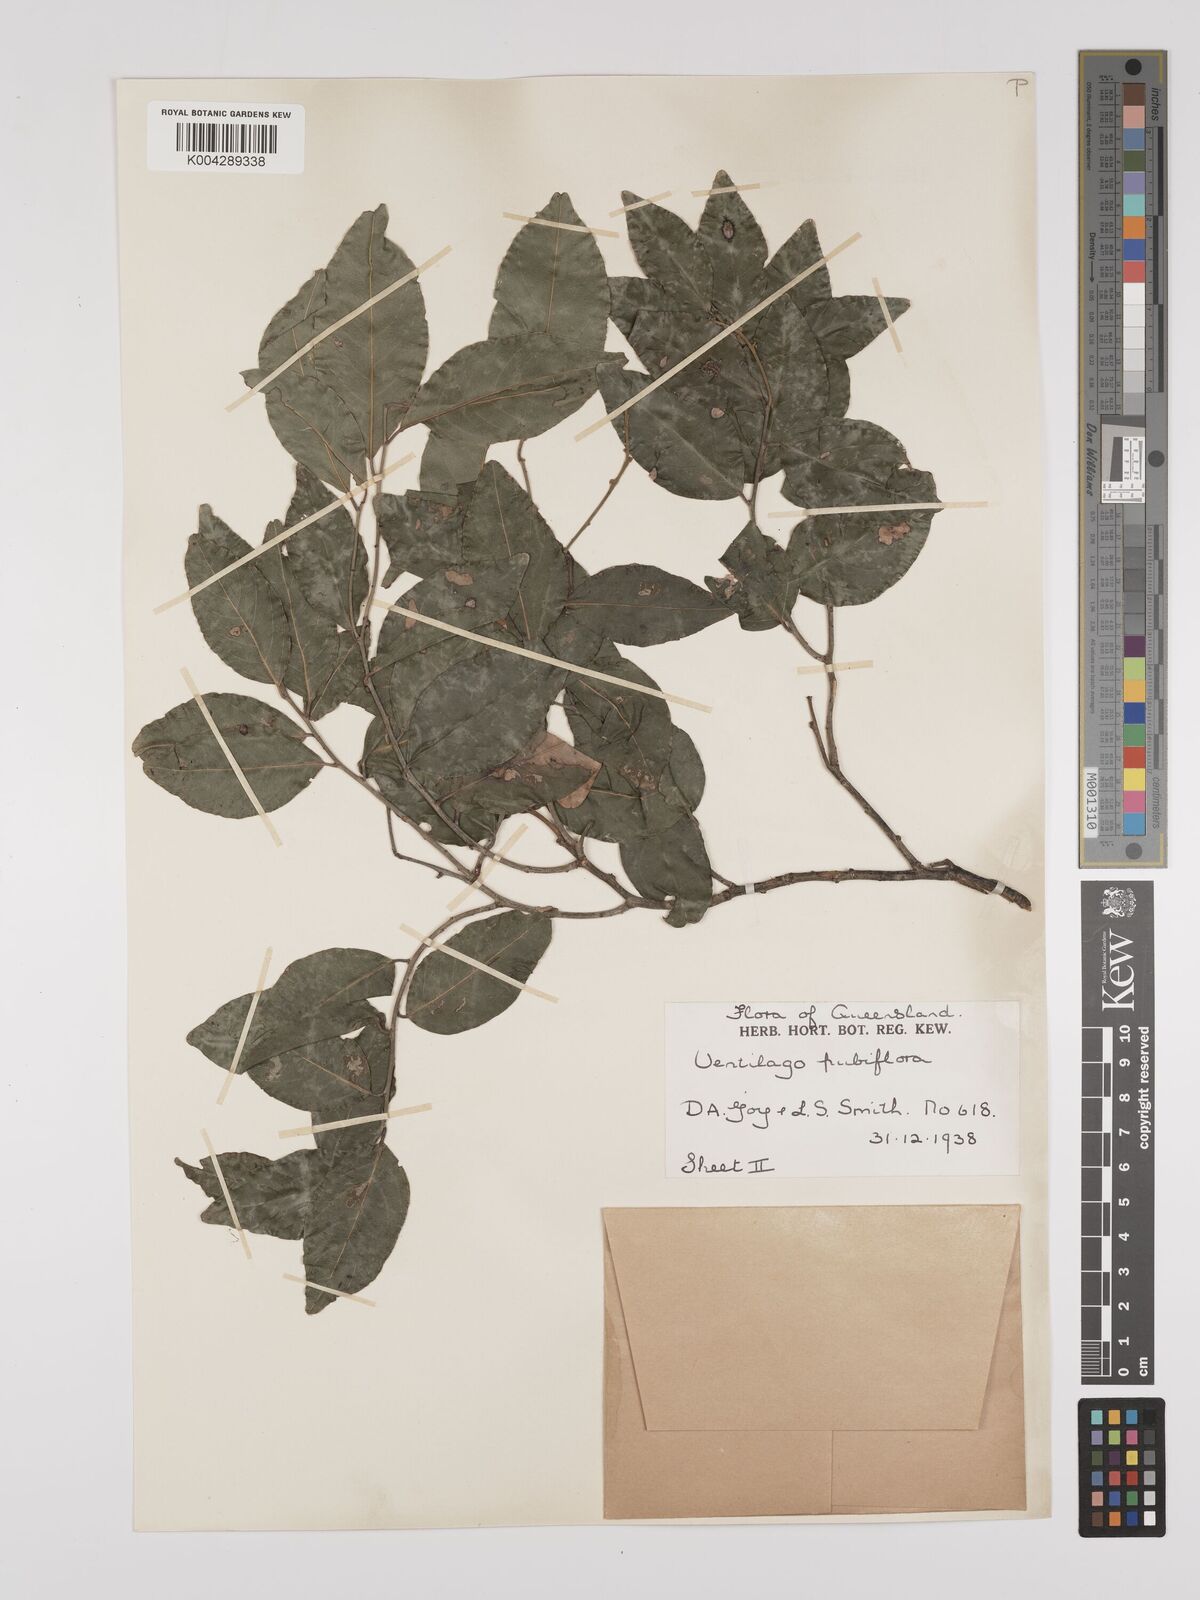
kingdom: Plantae
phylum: Tracheophyta
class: Magnoliopsida
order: Rosales
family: Rhamnaceae
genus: Ventilago
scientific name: Ventilago pubiflora
